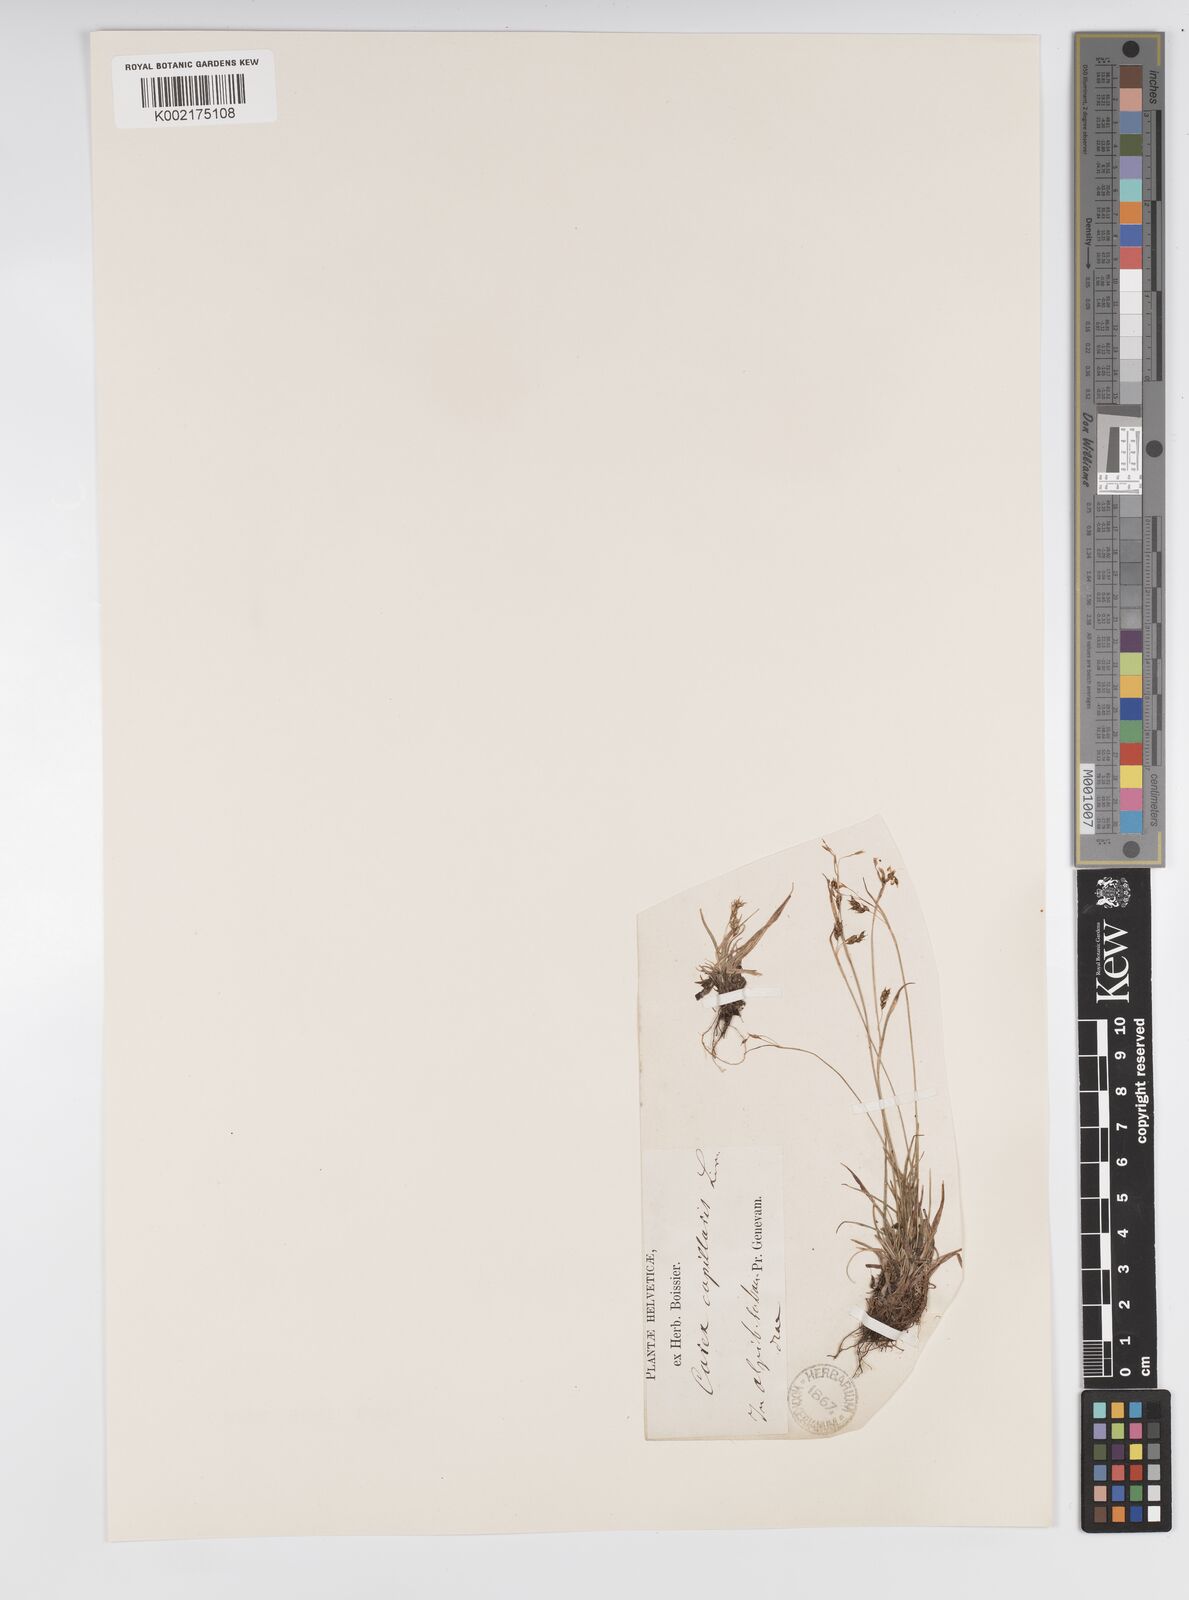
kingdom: Plantae
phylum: Tracheophyta
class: Liliopsida
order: Poales
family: Cyperaceae
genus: Carex
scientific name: Carex capillaris
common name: Hair sedge
